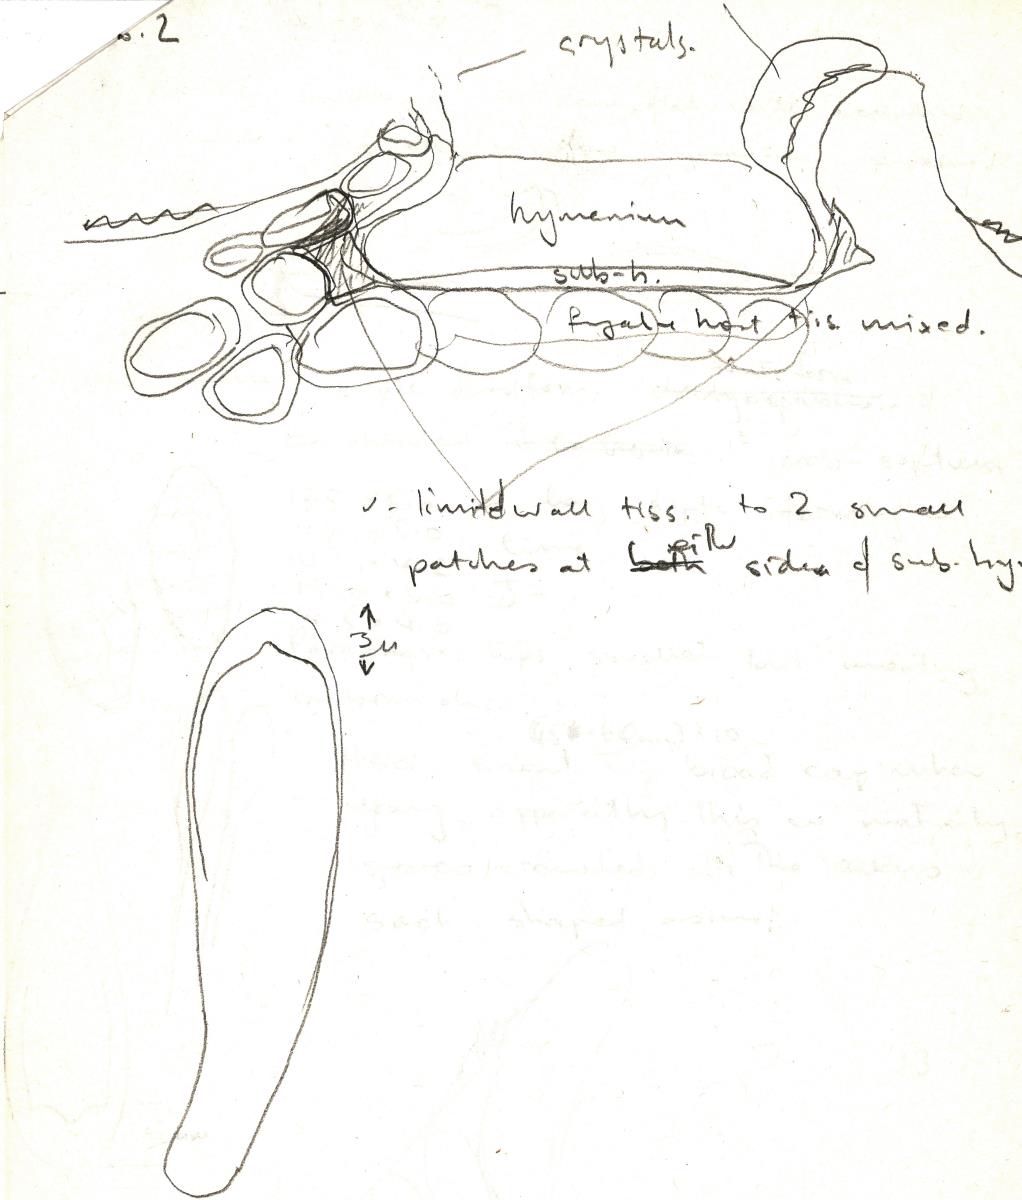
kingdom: Fungi
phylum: Ascomycota
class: Lecanoromycetes
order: Ostropales
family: Stictidaceae
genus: Delpontia
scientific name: Delpontia pulchella
